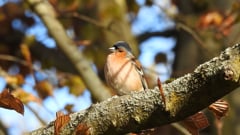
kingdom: Animalia
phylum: Chordata
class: Aves
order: Passeriformes
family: Fringillidae
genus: Fringilla
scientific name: Fringilla coelebs
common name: Common chaffinch
